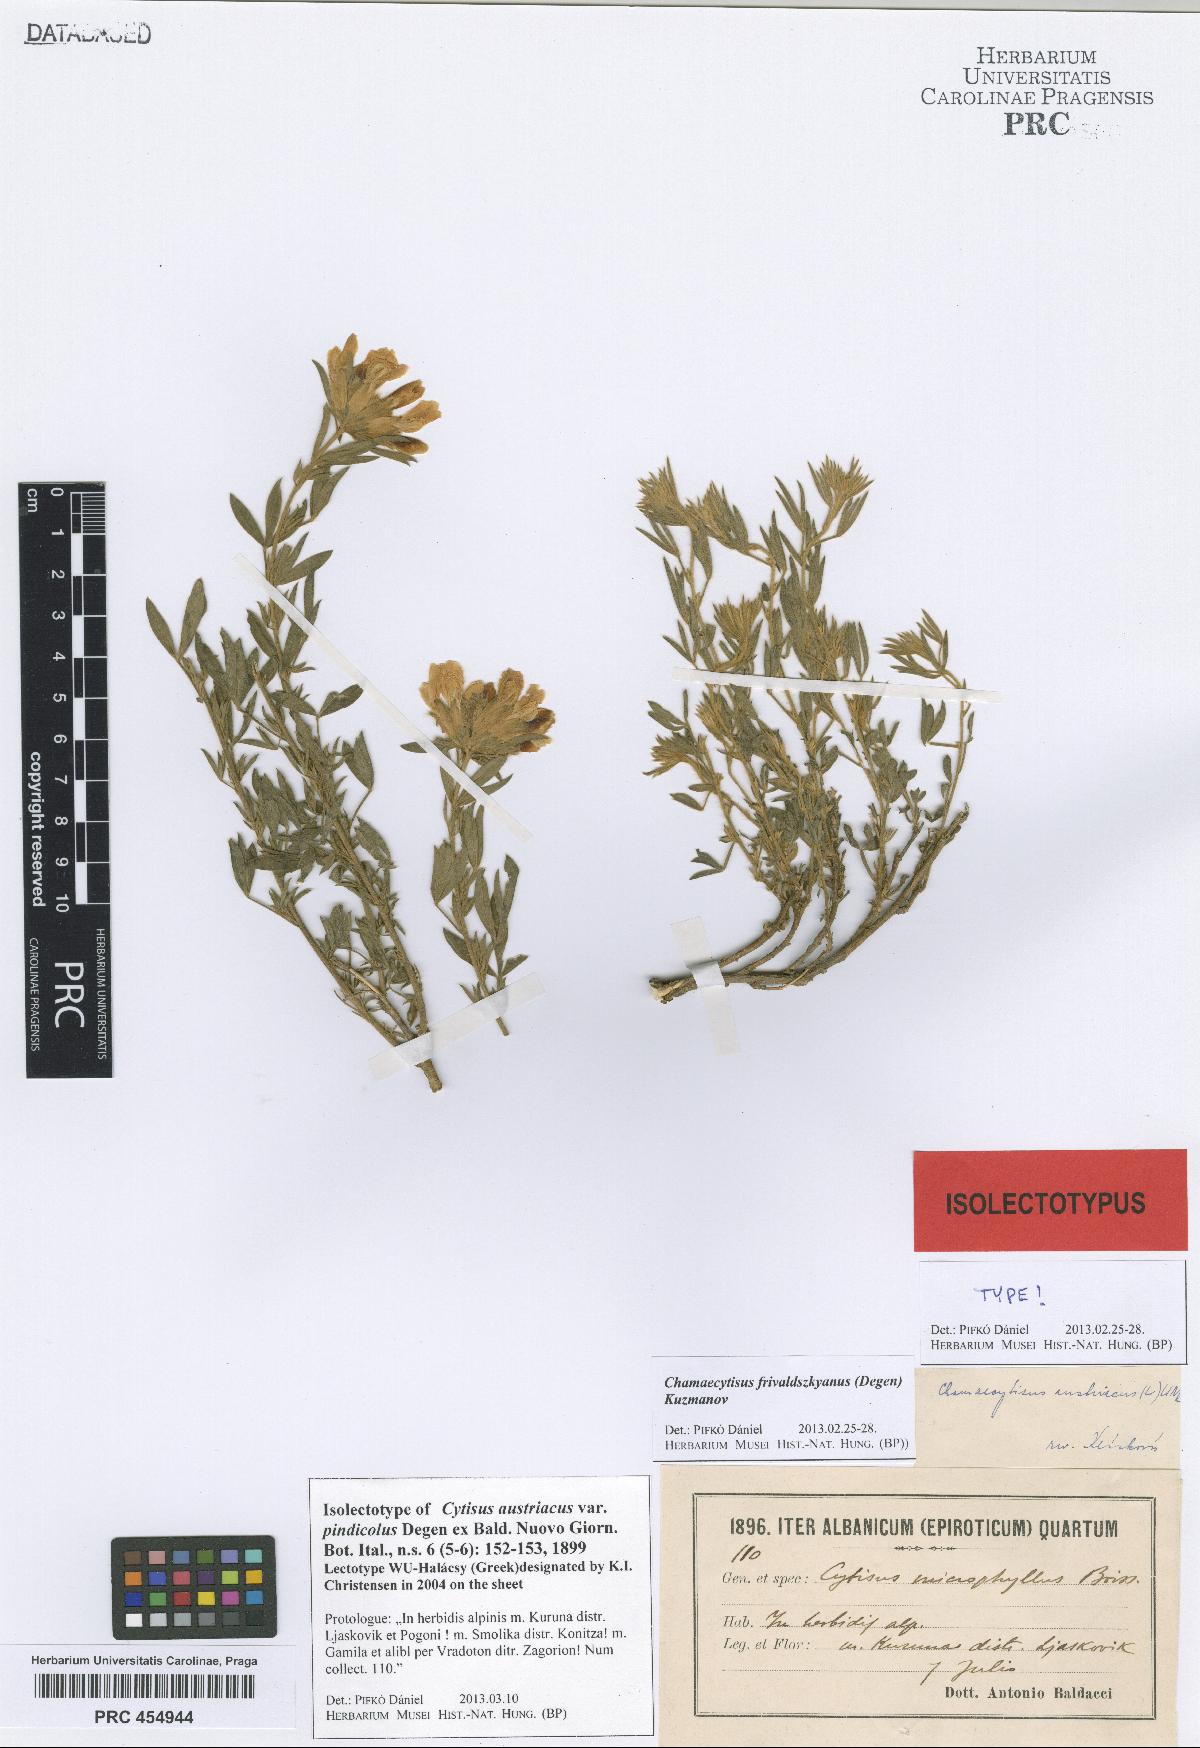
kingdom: Plantae
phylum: Tracheophyta
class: Magnoliopsida
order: Fabales
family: Fabaceae
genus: Chamaecytisus
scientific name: Chamaecytisus austriacus
